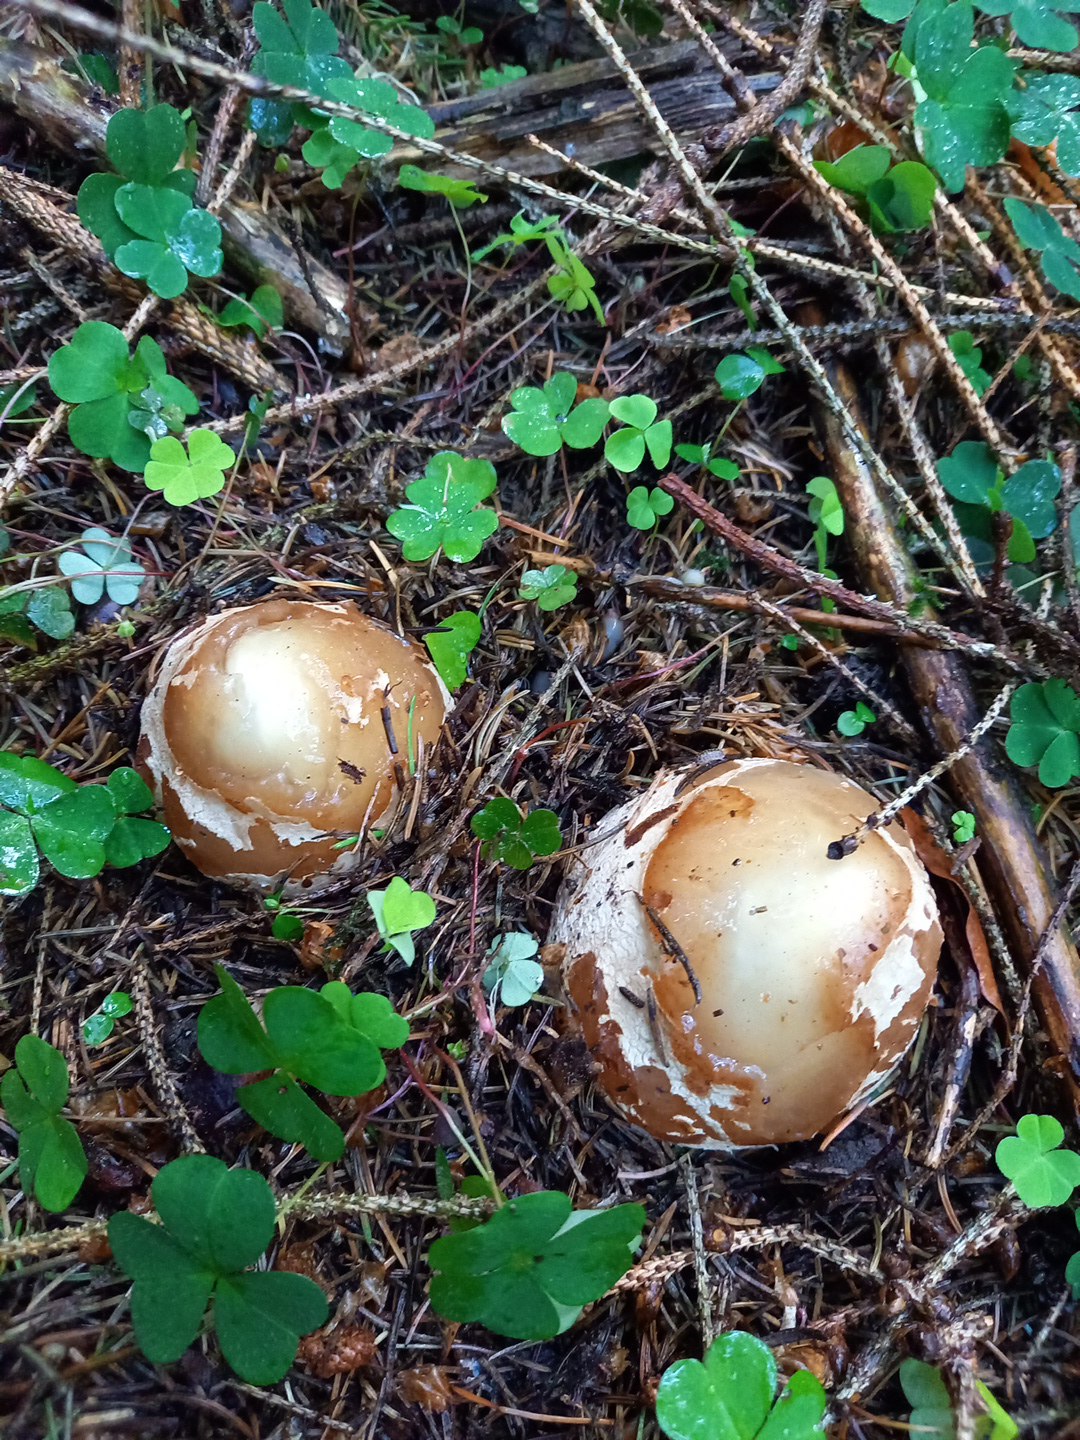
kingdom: Fungi
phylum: Basidiomycota
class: Agaricomycetes
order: Phallales
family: Phallaceae
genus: Phallus
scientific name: Phallus impudicus
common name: almindelig stinksvamp
